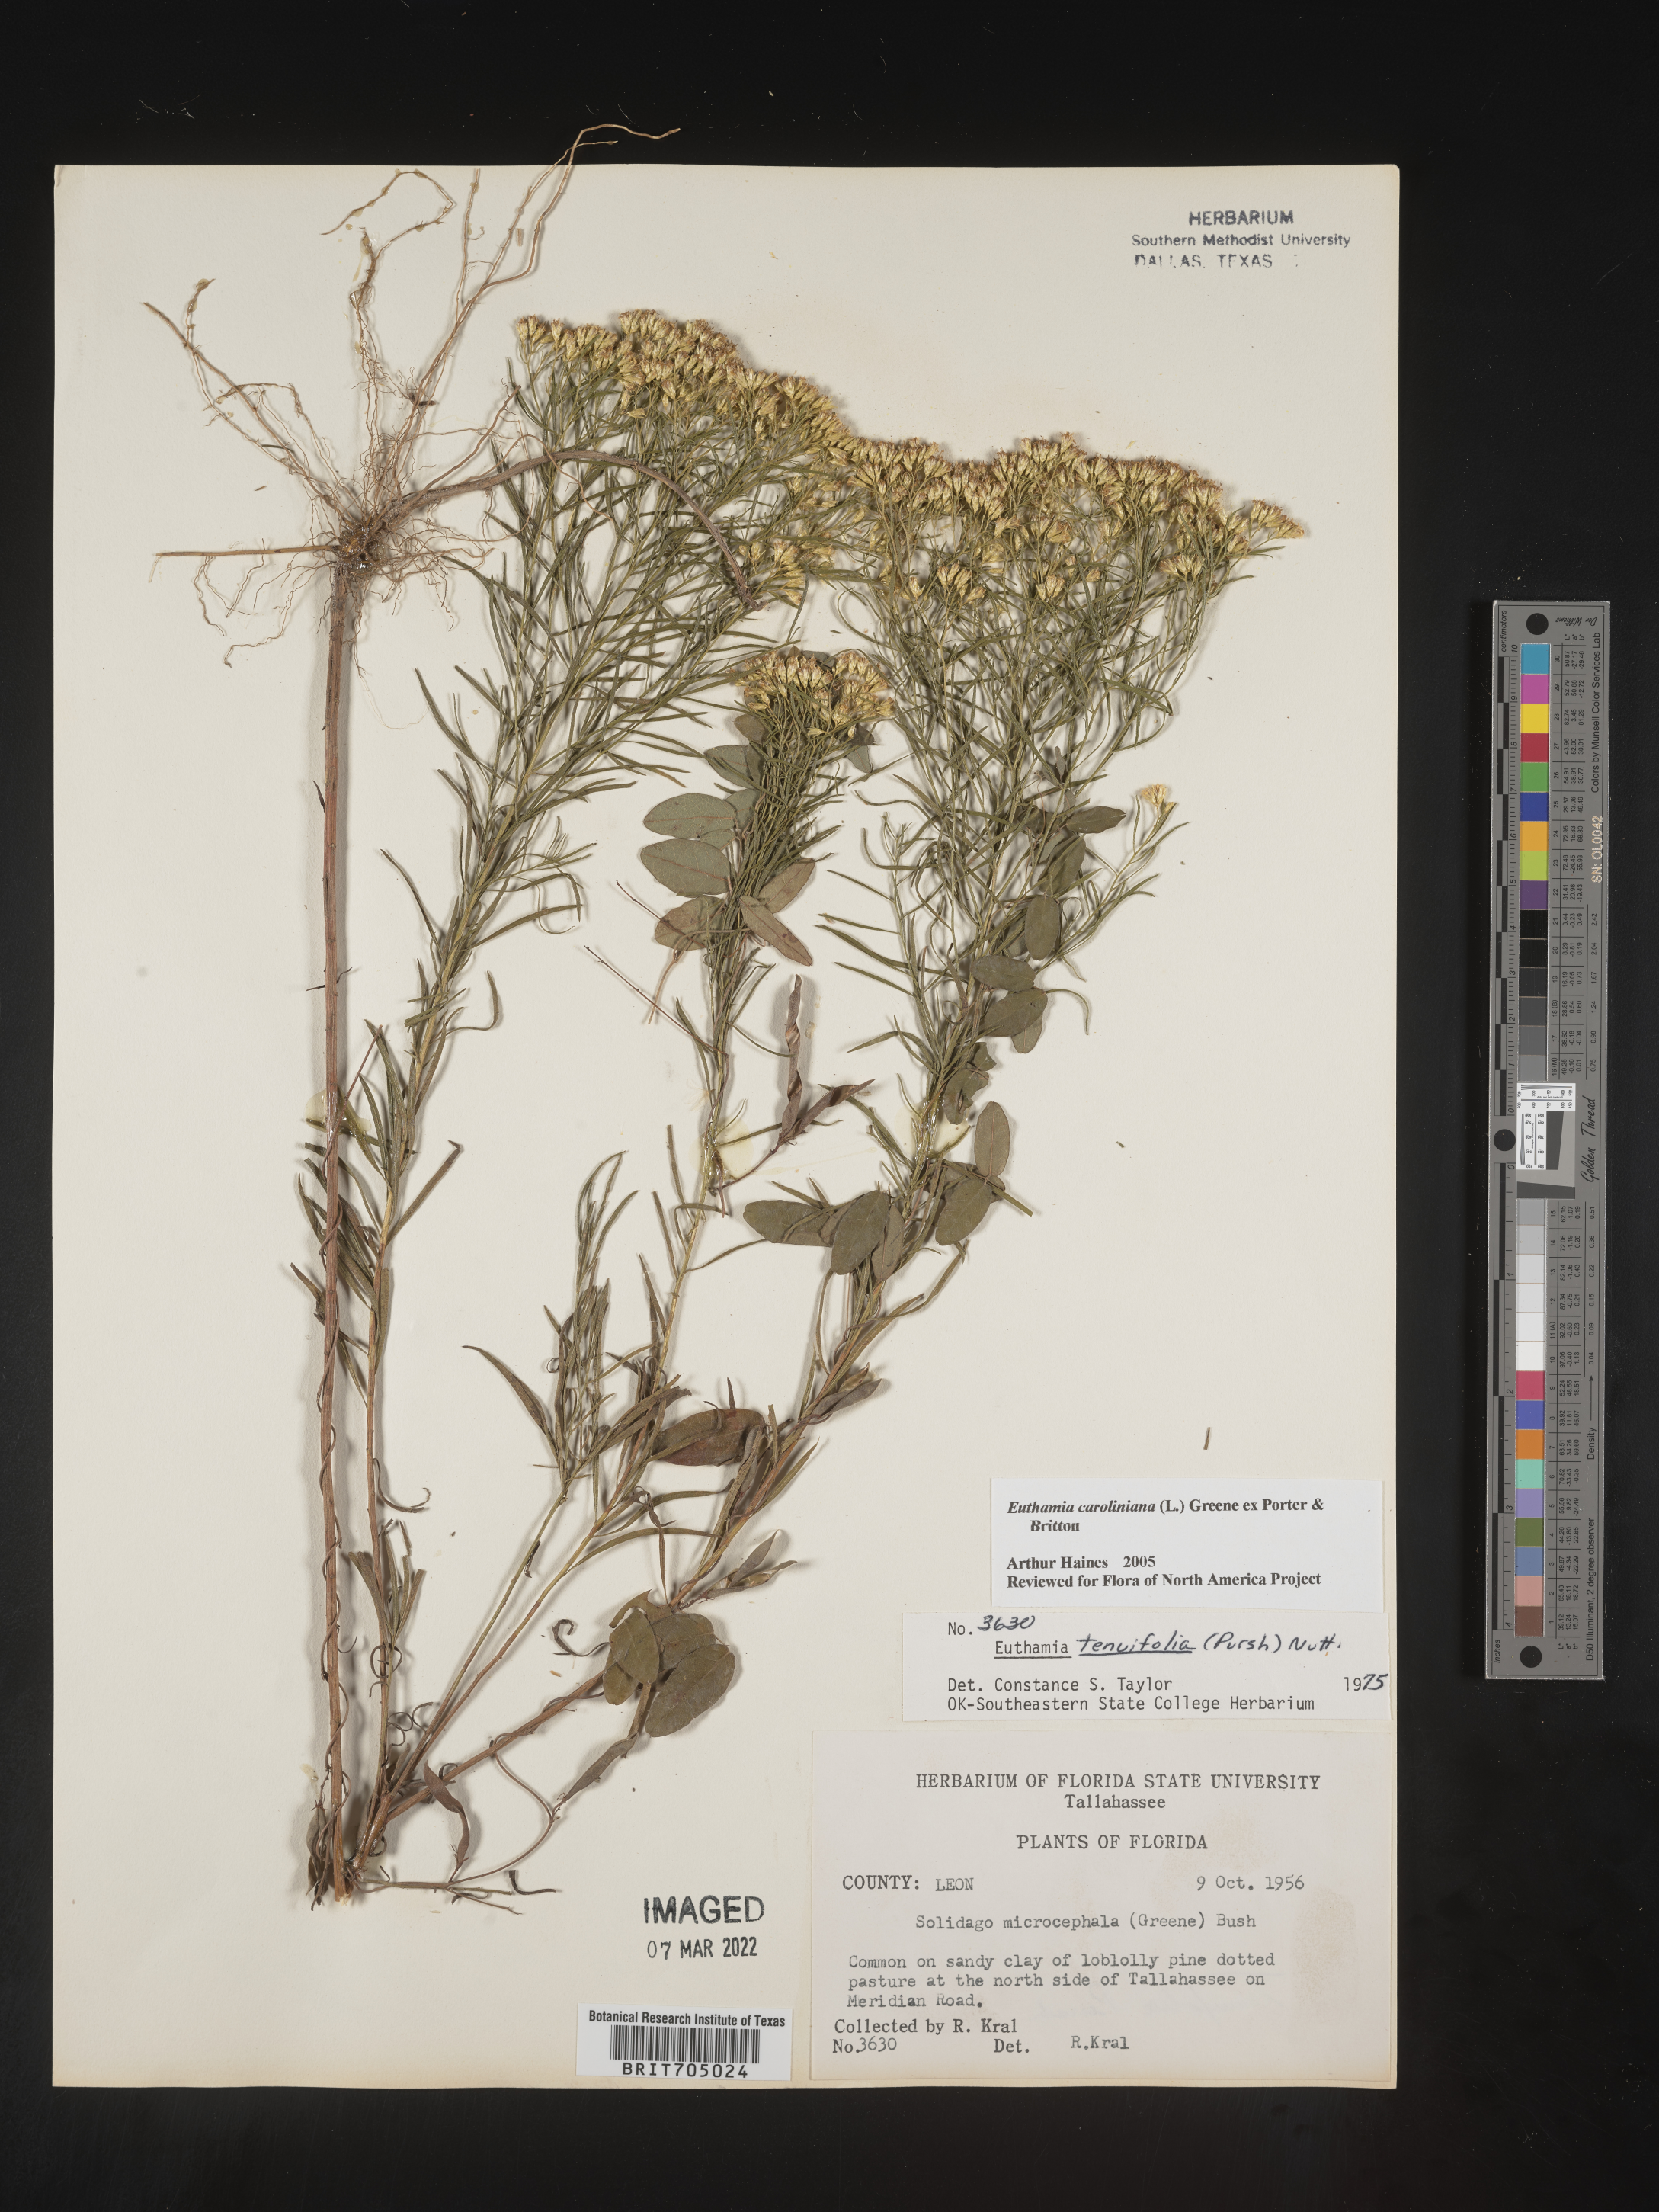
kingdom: Plantae
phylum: Tracheophyta
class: Magnoliopsida
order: Asterales
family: Asteraceae
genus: Euthamia
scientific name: Euthamia caroliniana
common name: Coastal plain goldentop
